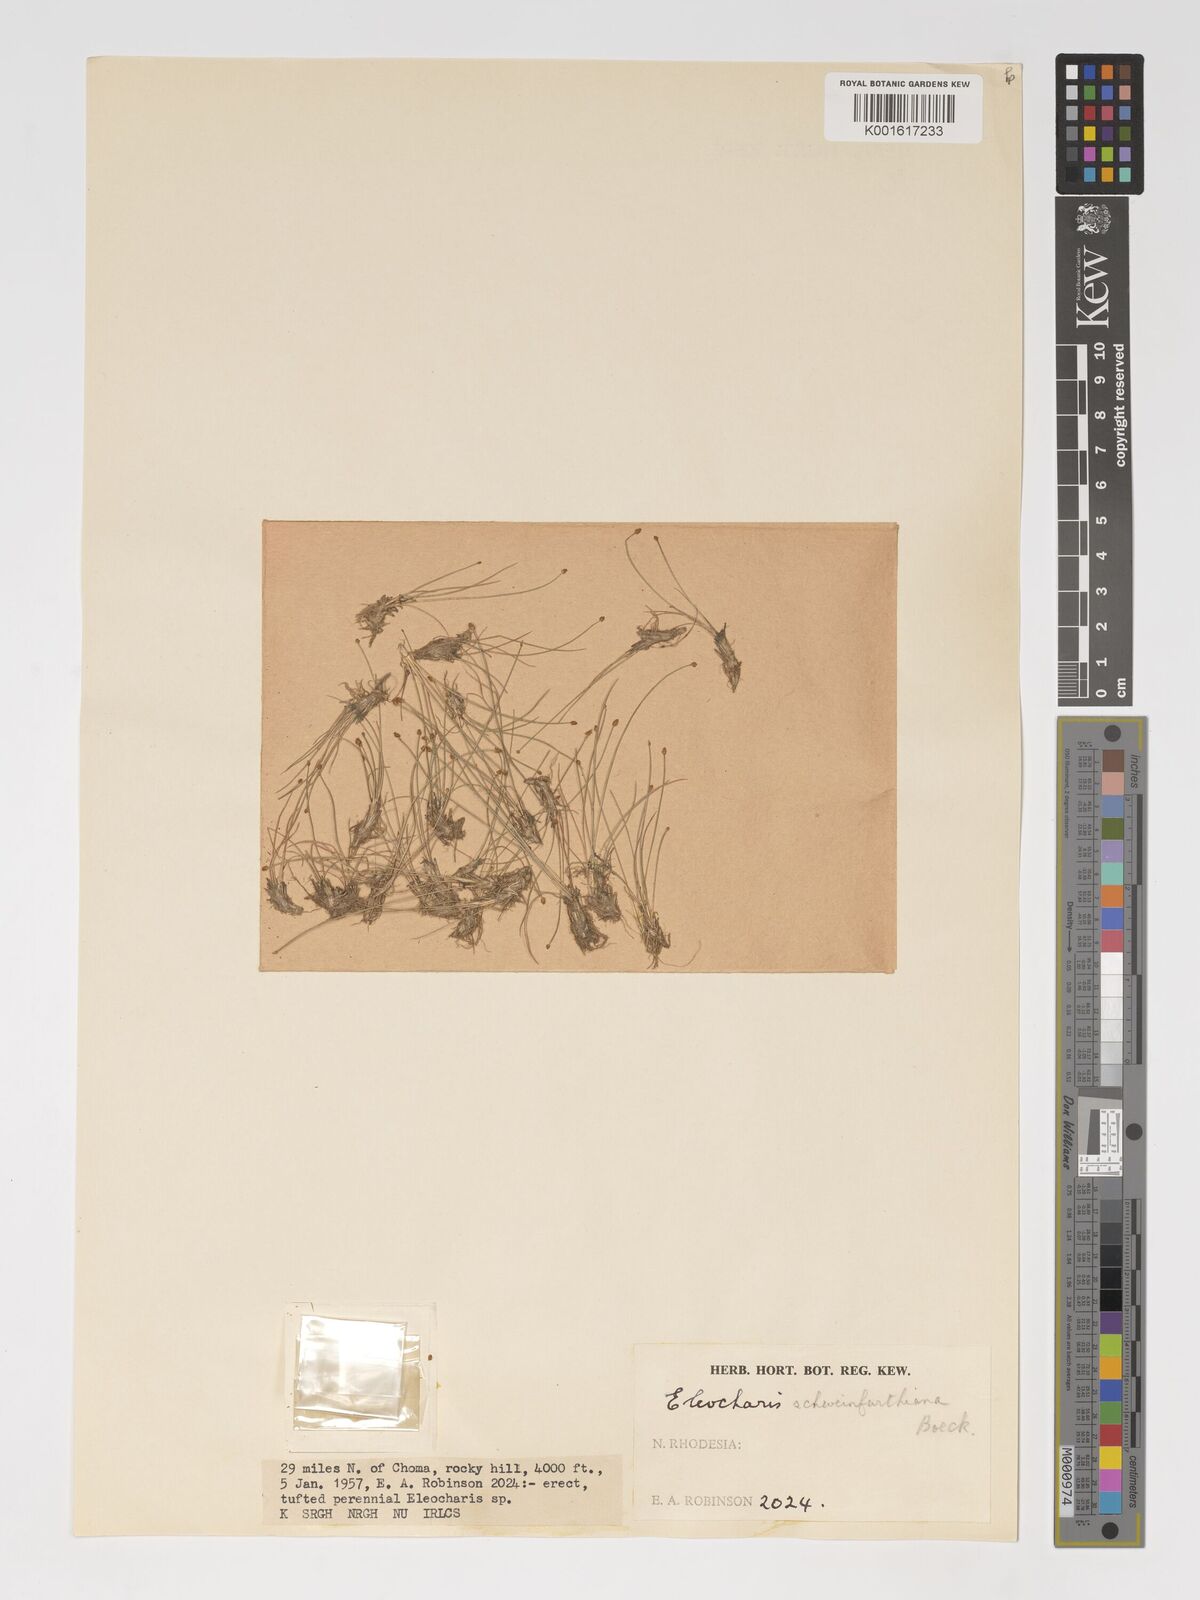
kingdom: Plantae
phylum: Tracheophyta
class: Liliopsida
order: Poales
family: Cyperaceae
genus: Eleocharis
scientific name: Eleocharis setifolia
